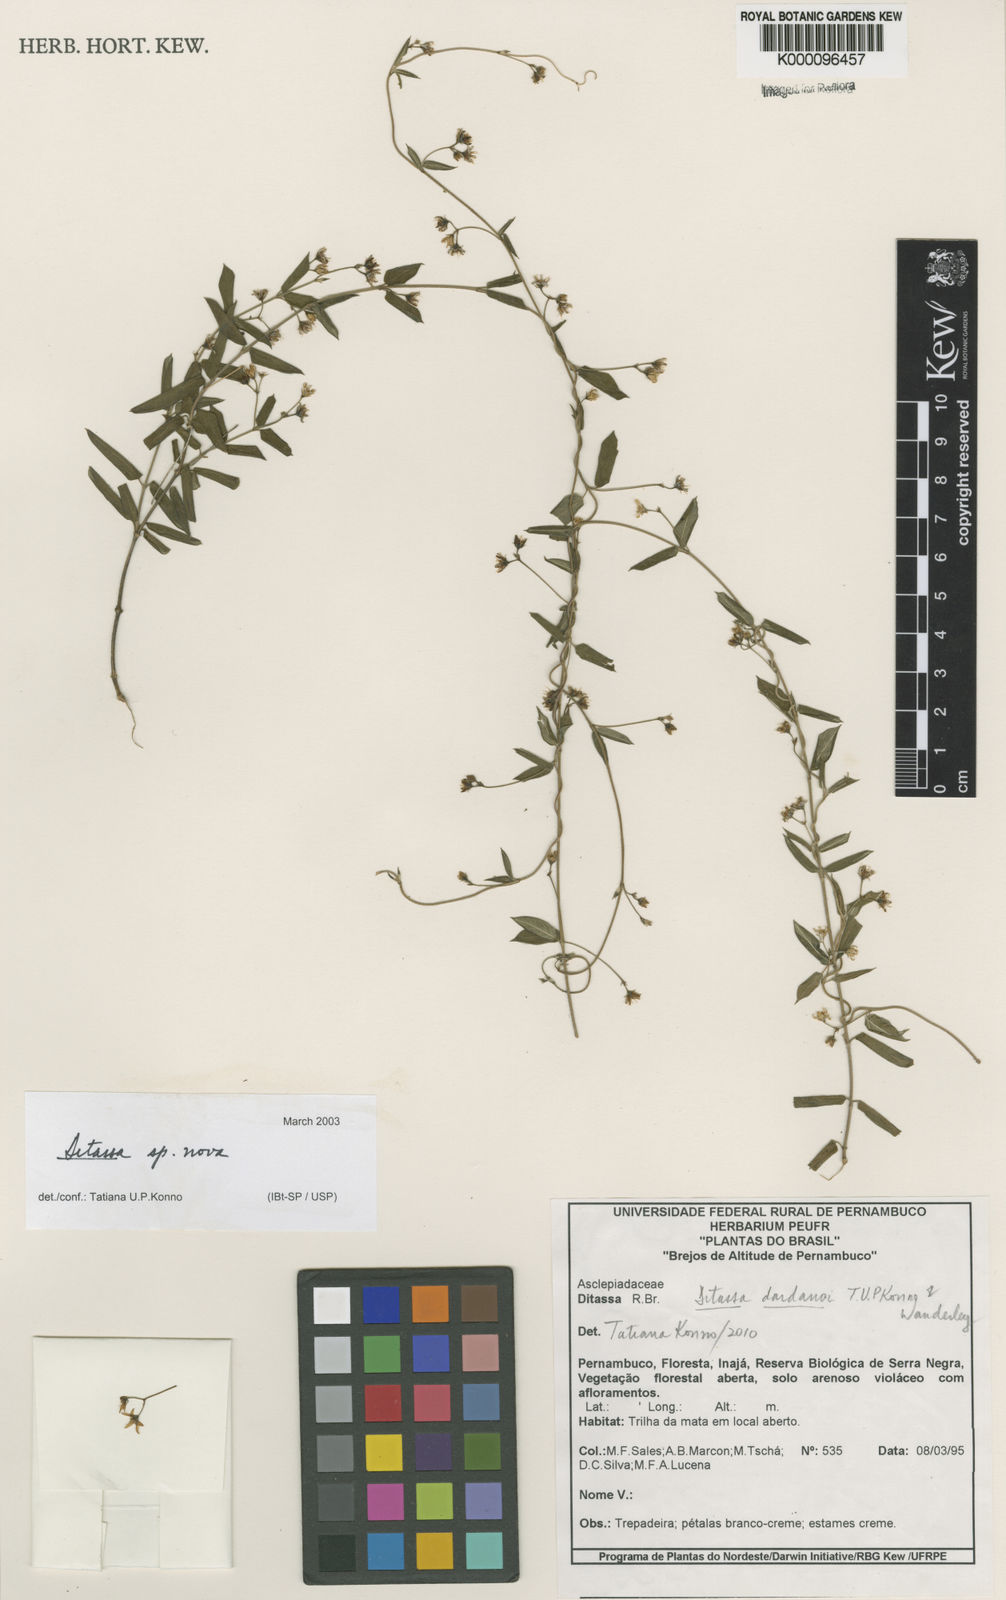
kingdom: Plantae
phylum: Tracheophyta
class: Magnoliopsida
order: Gentianales
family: Apocynaceae
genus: Ditassa
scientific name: Ditassa dardanoi
